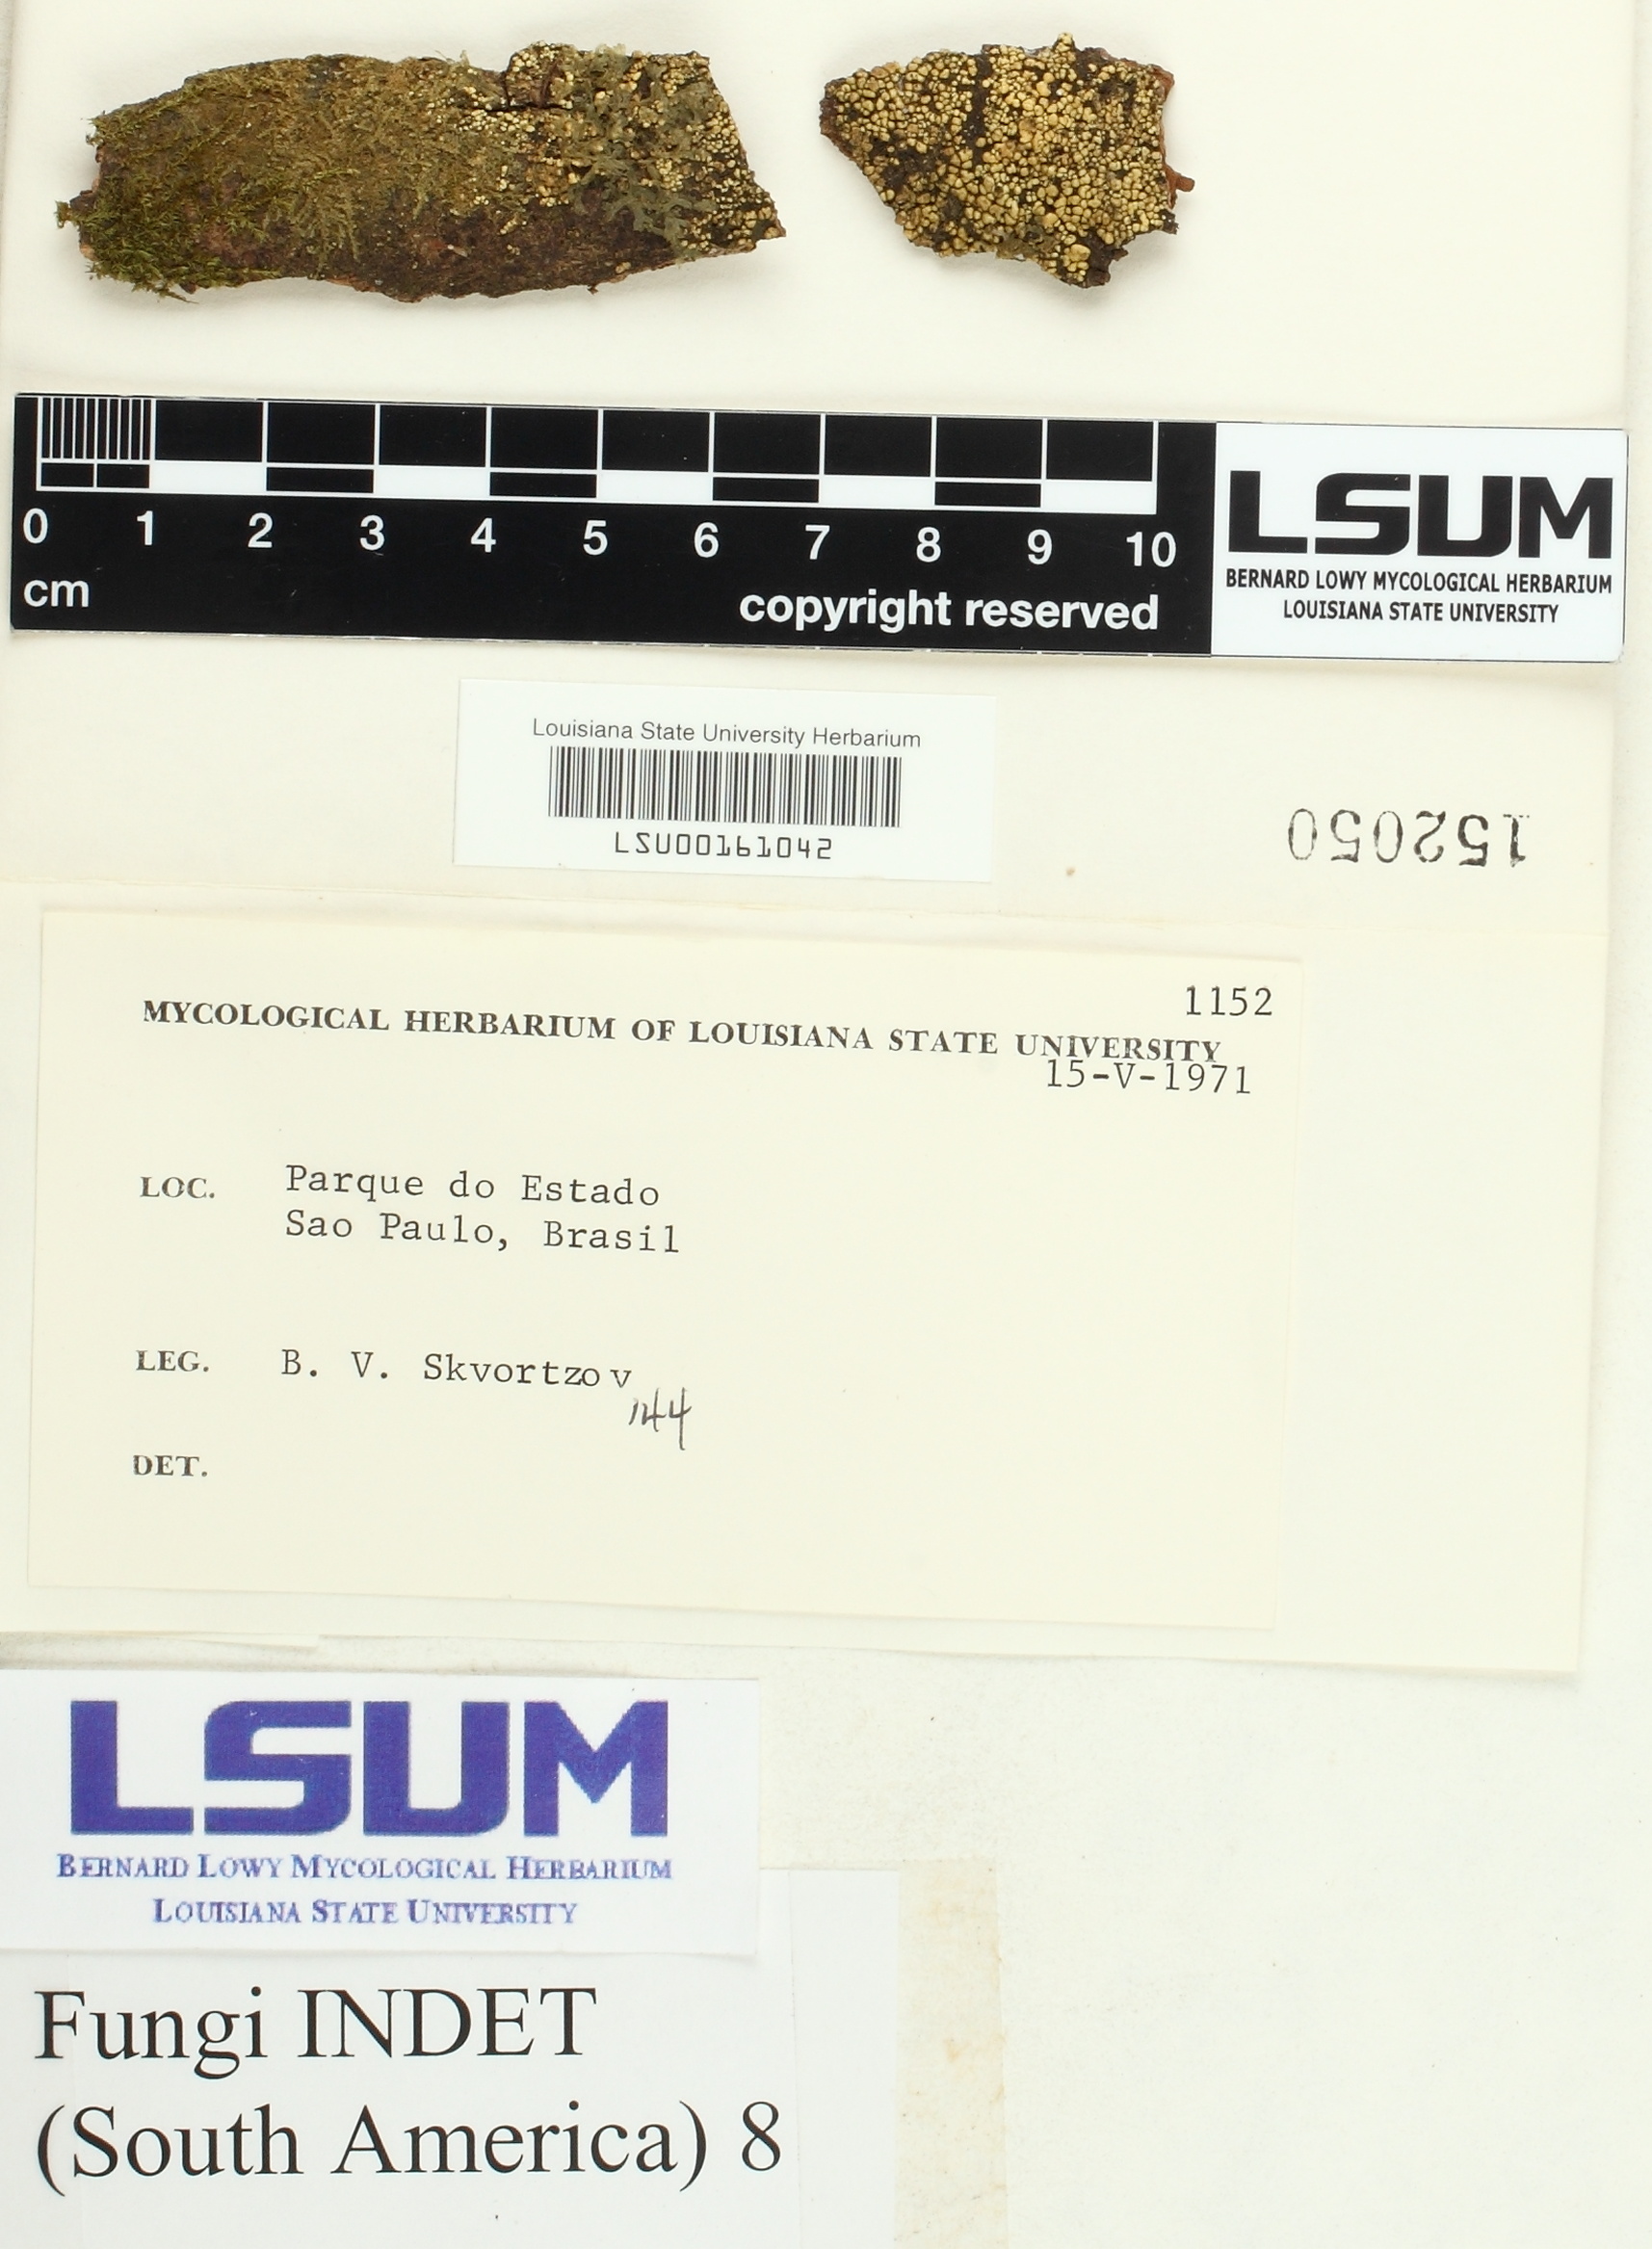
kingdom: Fungi
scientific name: Fungi
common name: Fungi
